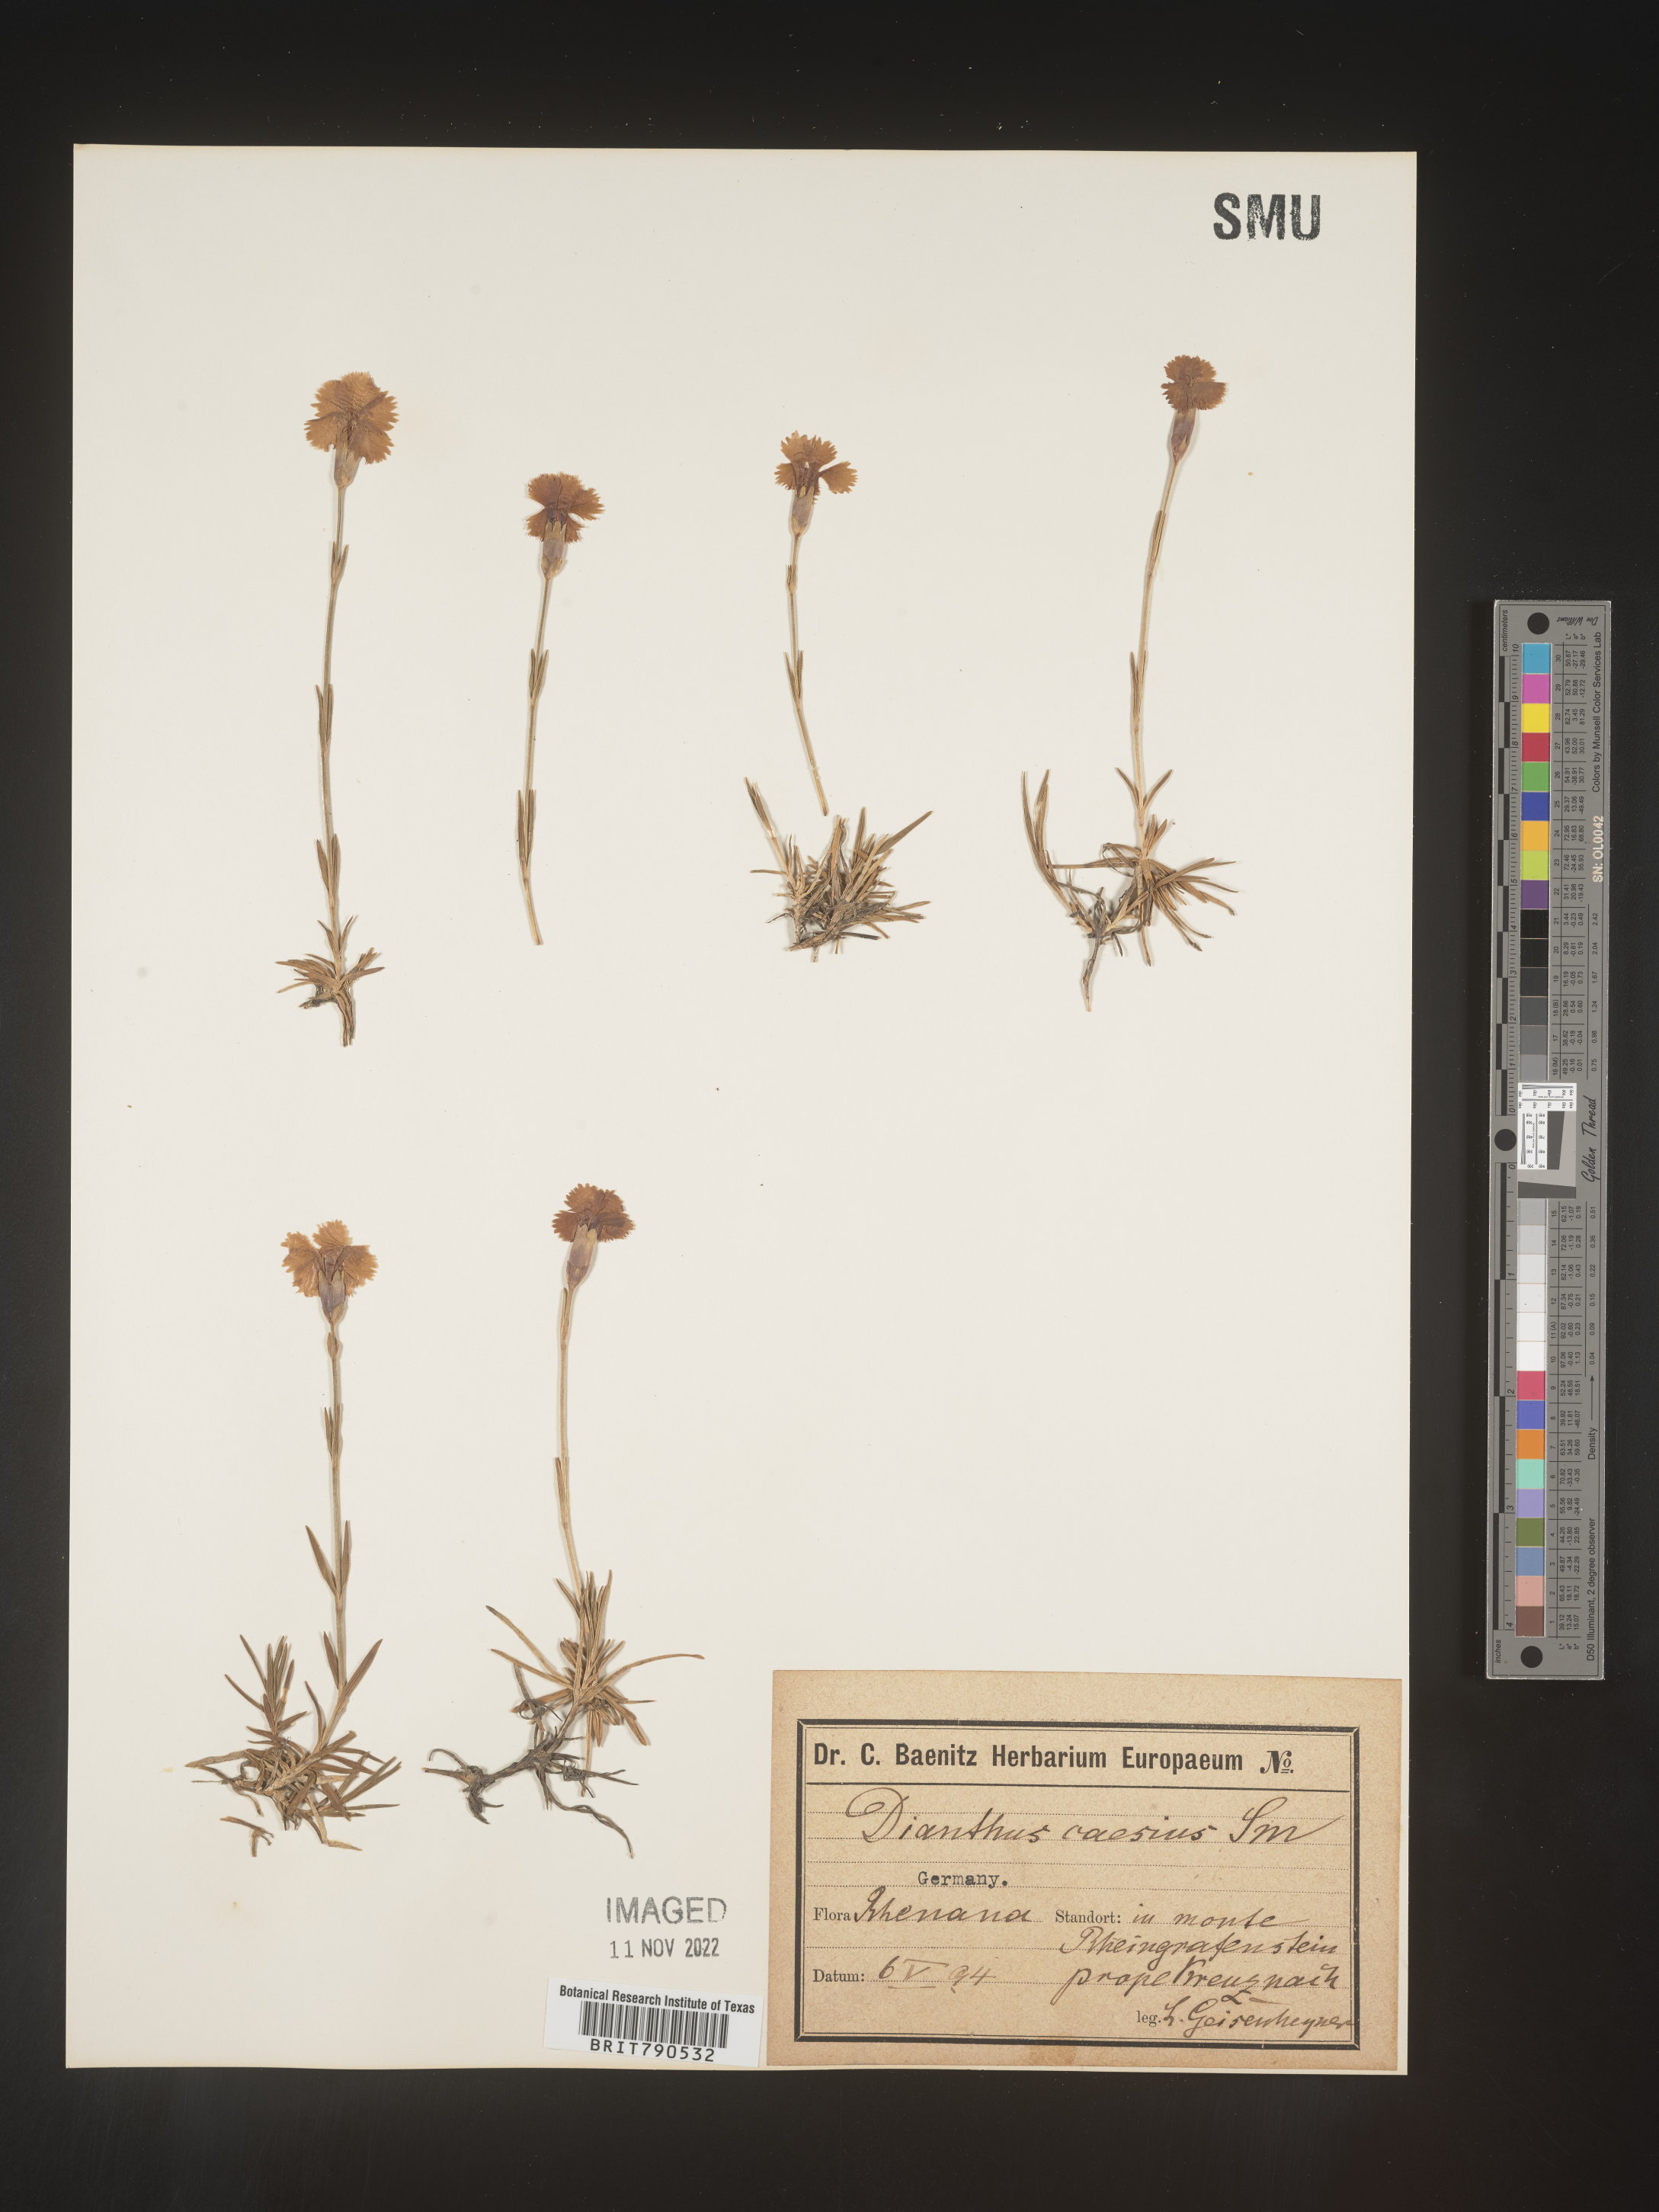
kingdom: Plantae
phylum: Tracheophyta
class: Magnoliopsida
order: Caryophyllales
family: Caryophyllaceae
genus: Dianthus
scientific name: Dianthus
